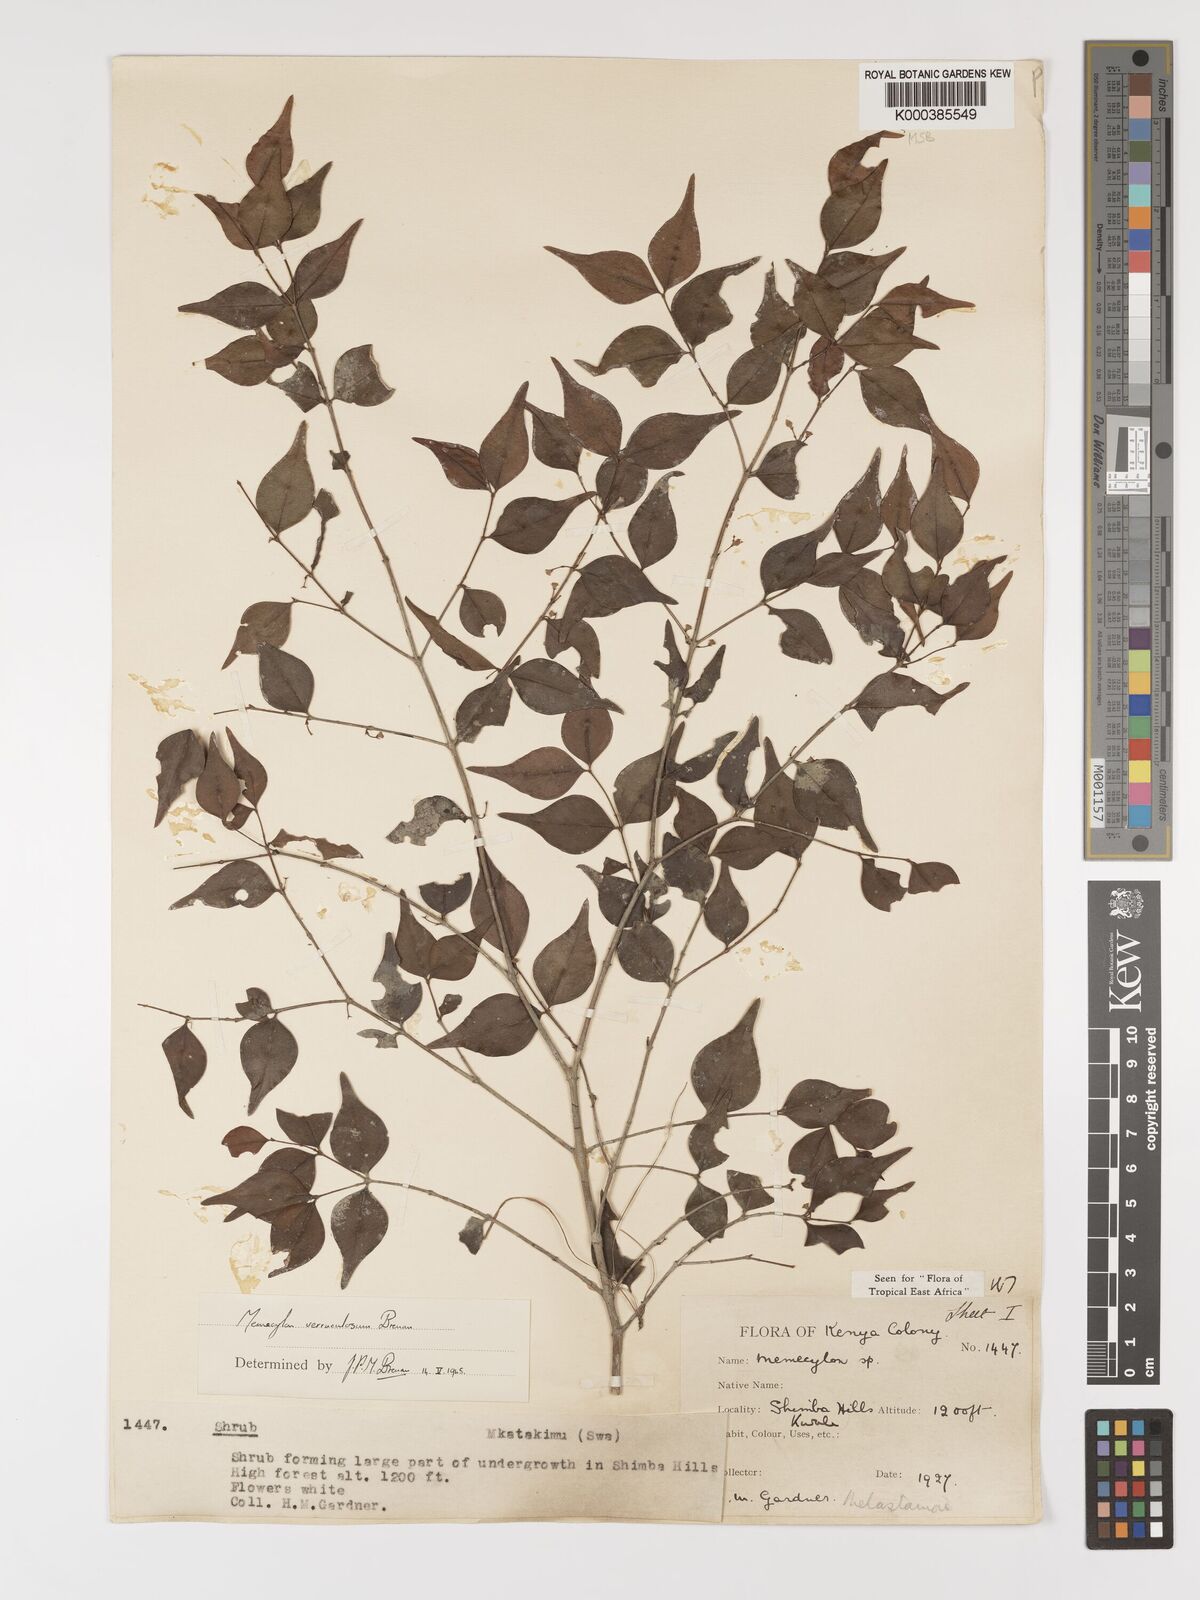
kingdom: Plantae
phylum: Tracheophyta
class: Magnoliopsida
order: Myrtales
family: Melastomataceae
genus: Memecylon
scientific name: Memecylon verruculosum
